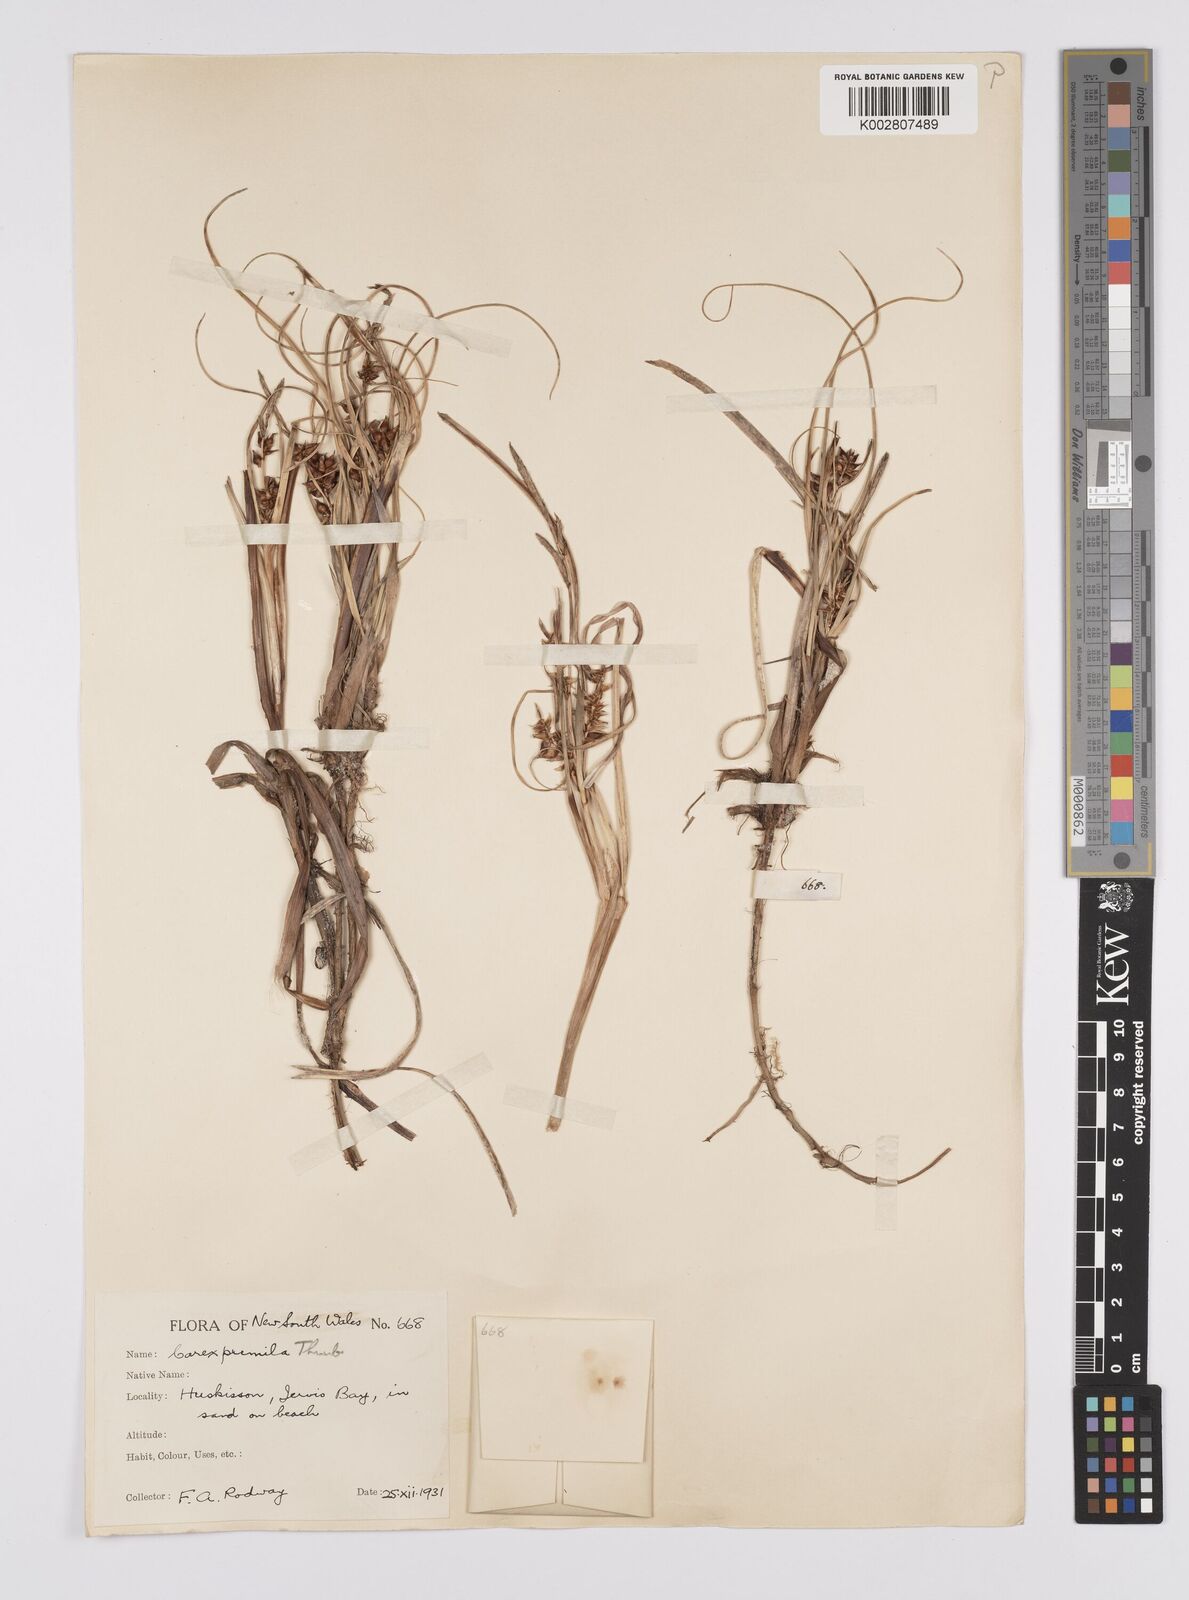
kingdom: Plantae
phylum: Tracheophyta
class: Liliopsida
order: Poales
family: Cyperaceae
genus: Carex
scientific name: Carex pumila
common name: Dwarf sedge
